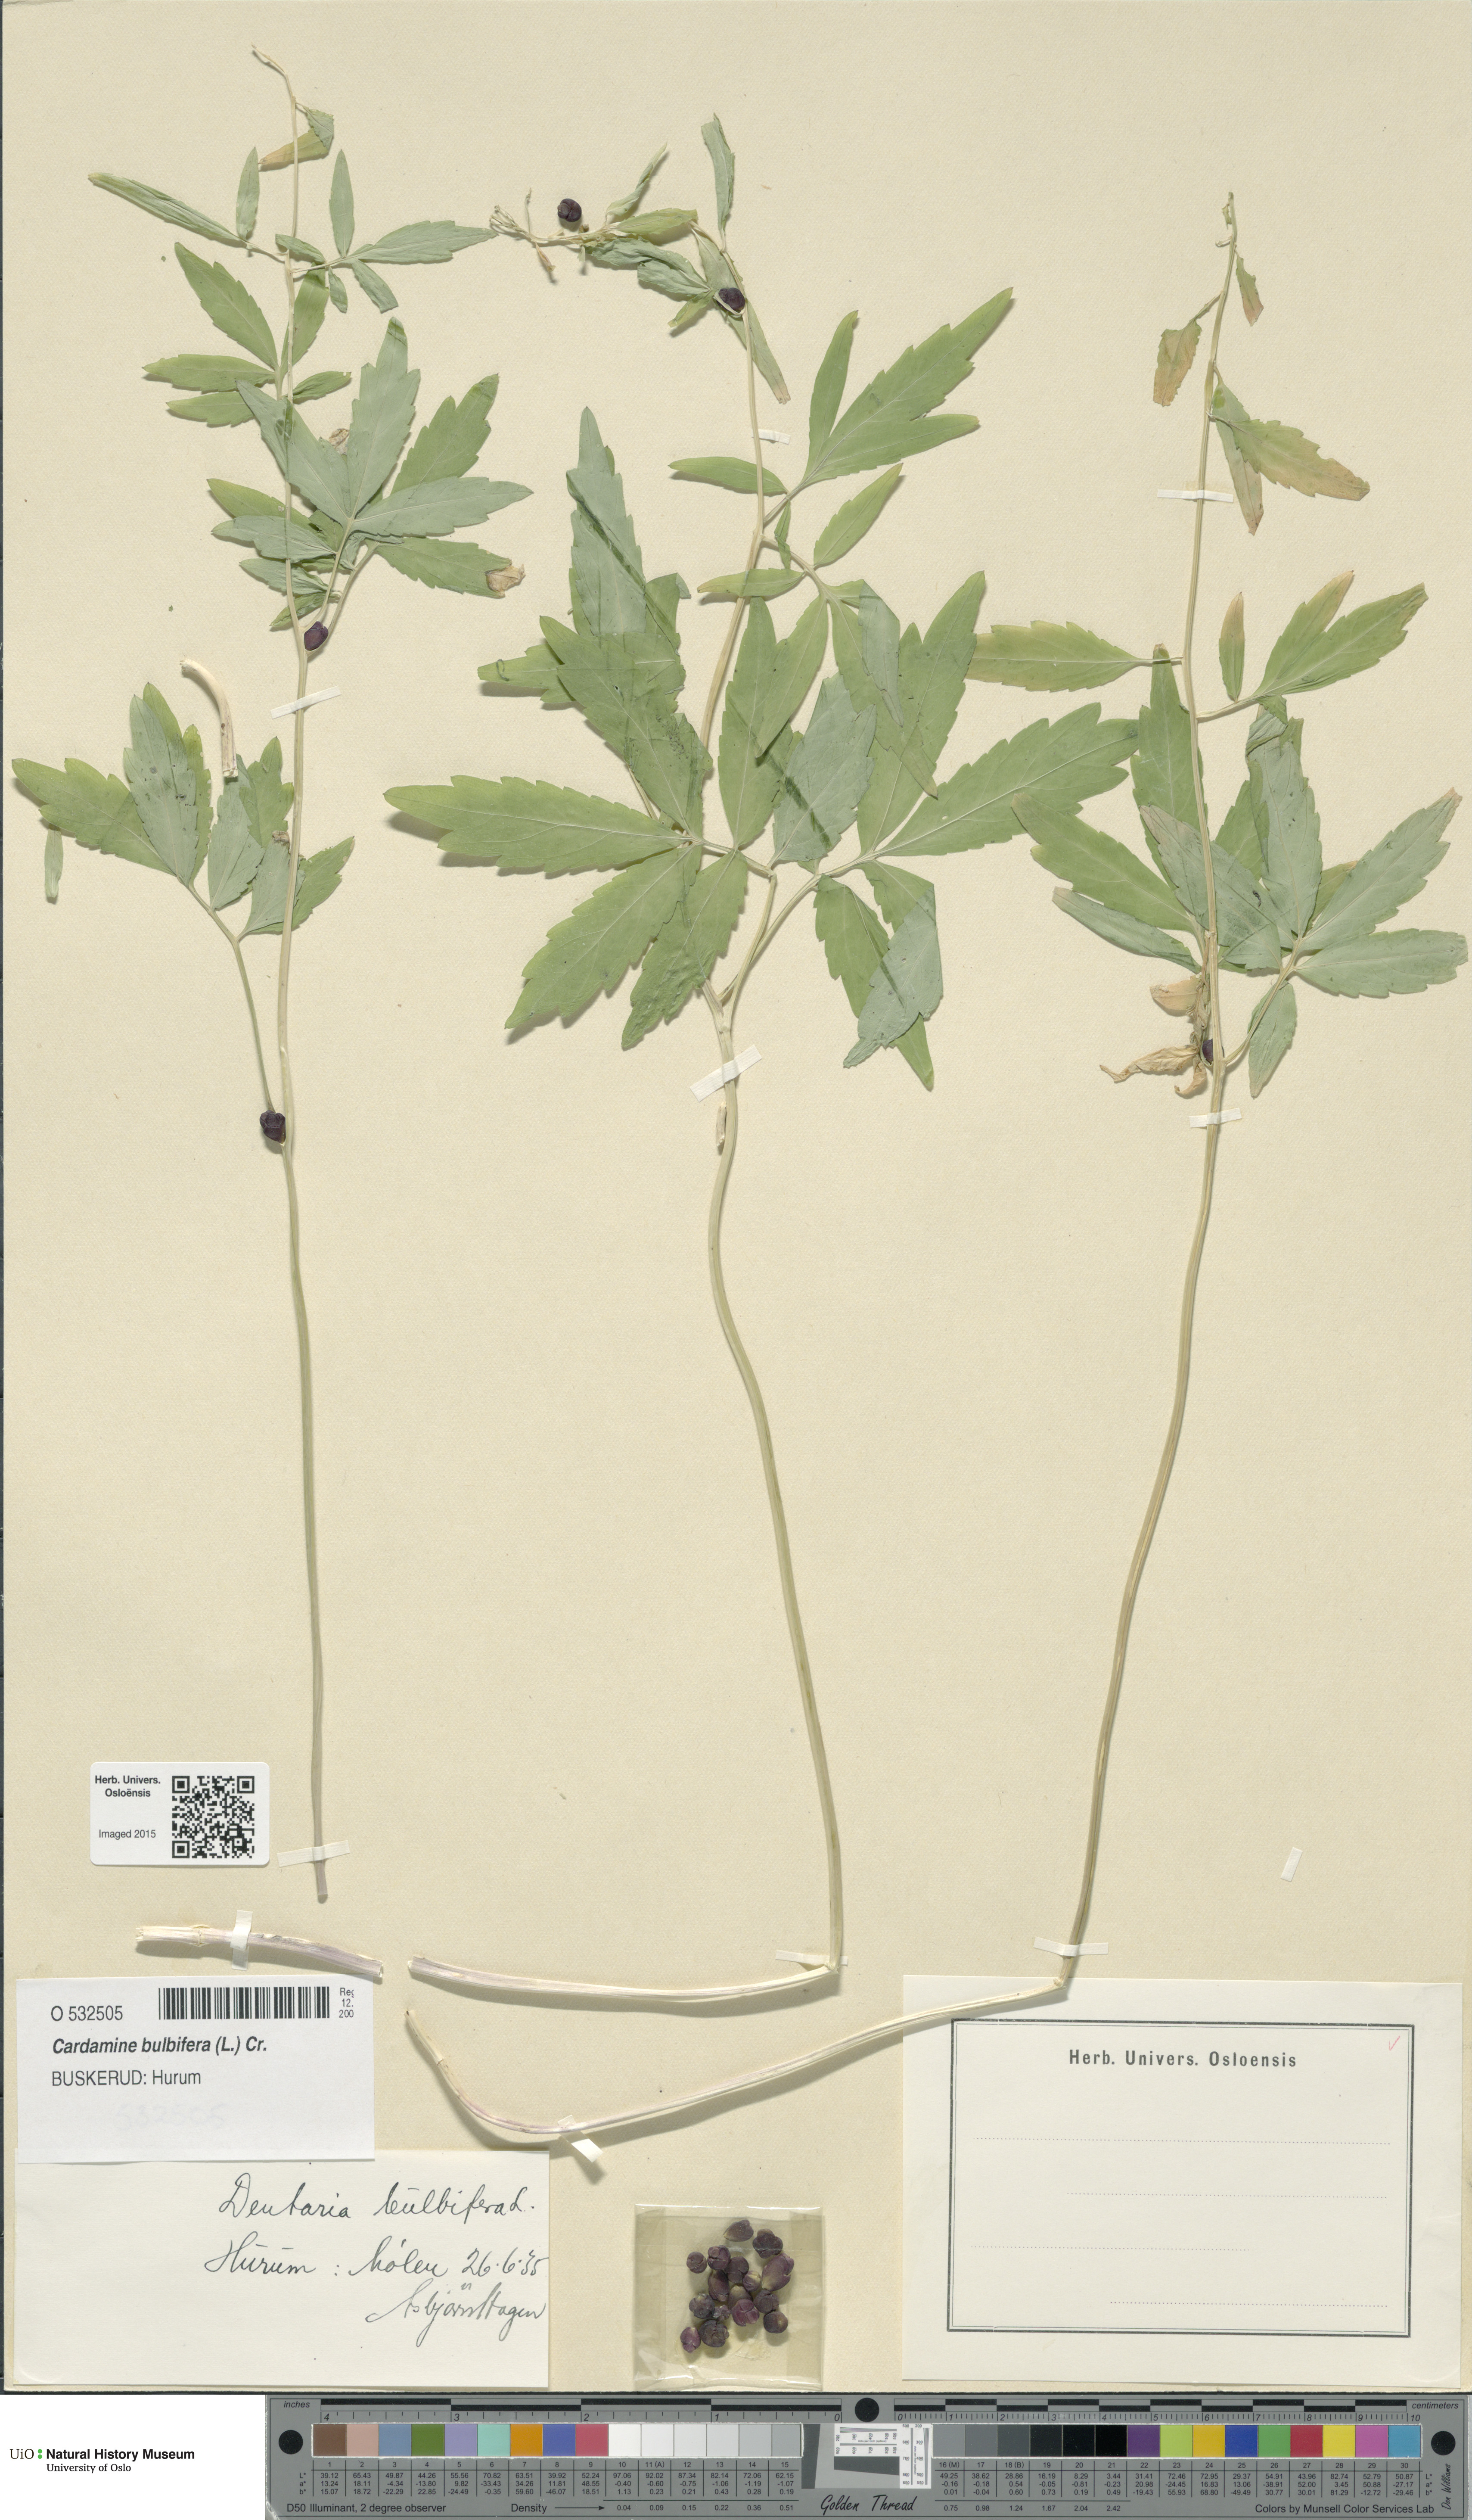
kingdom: Plantae
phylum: Tracheophyta
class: Magnoliopsida
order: Brassicales
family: Brassicaceae
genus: Cardamine
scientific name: Cardamine bulbifera
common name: Coralroot bittercress
